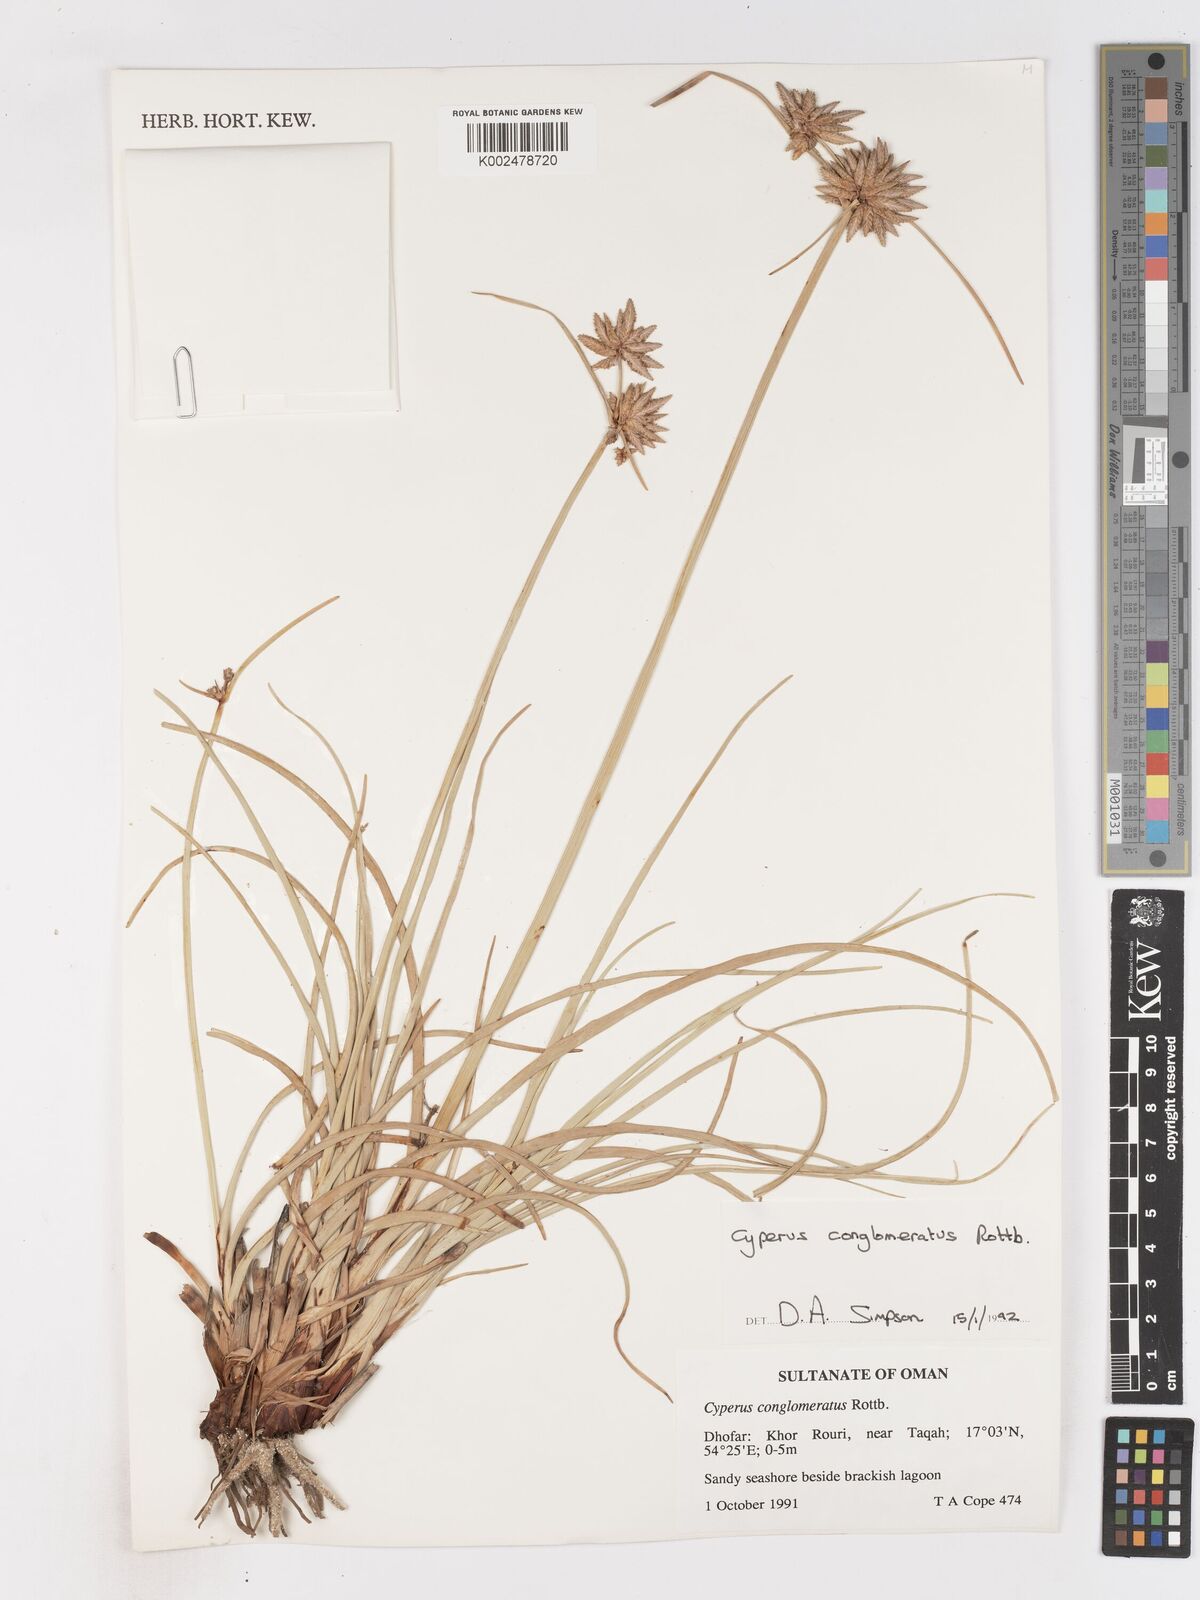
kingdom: Plantae
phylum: Tracheophyta
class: Liliopsida
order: Poales
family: Cyperaceae
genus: Cyperus
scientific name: Cyperus conglomeratus
